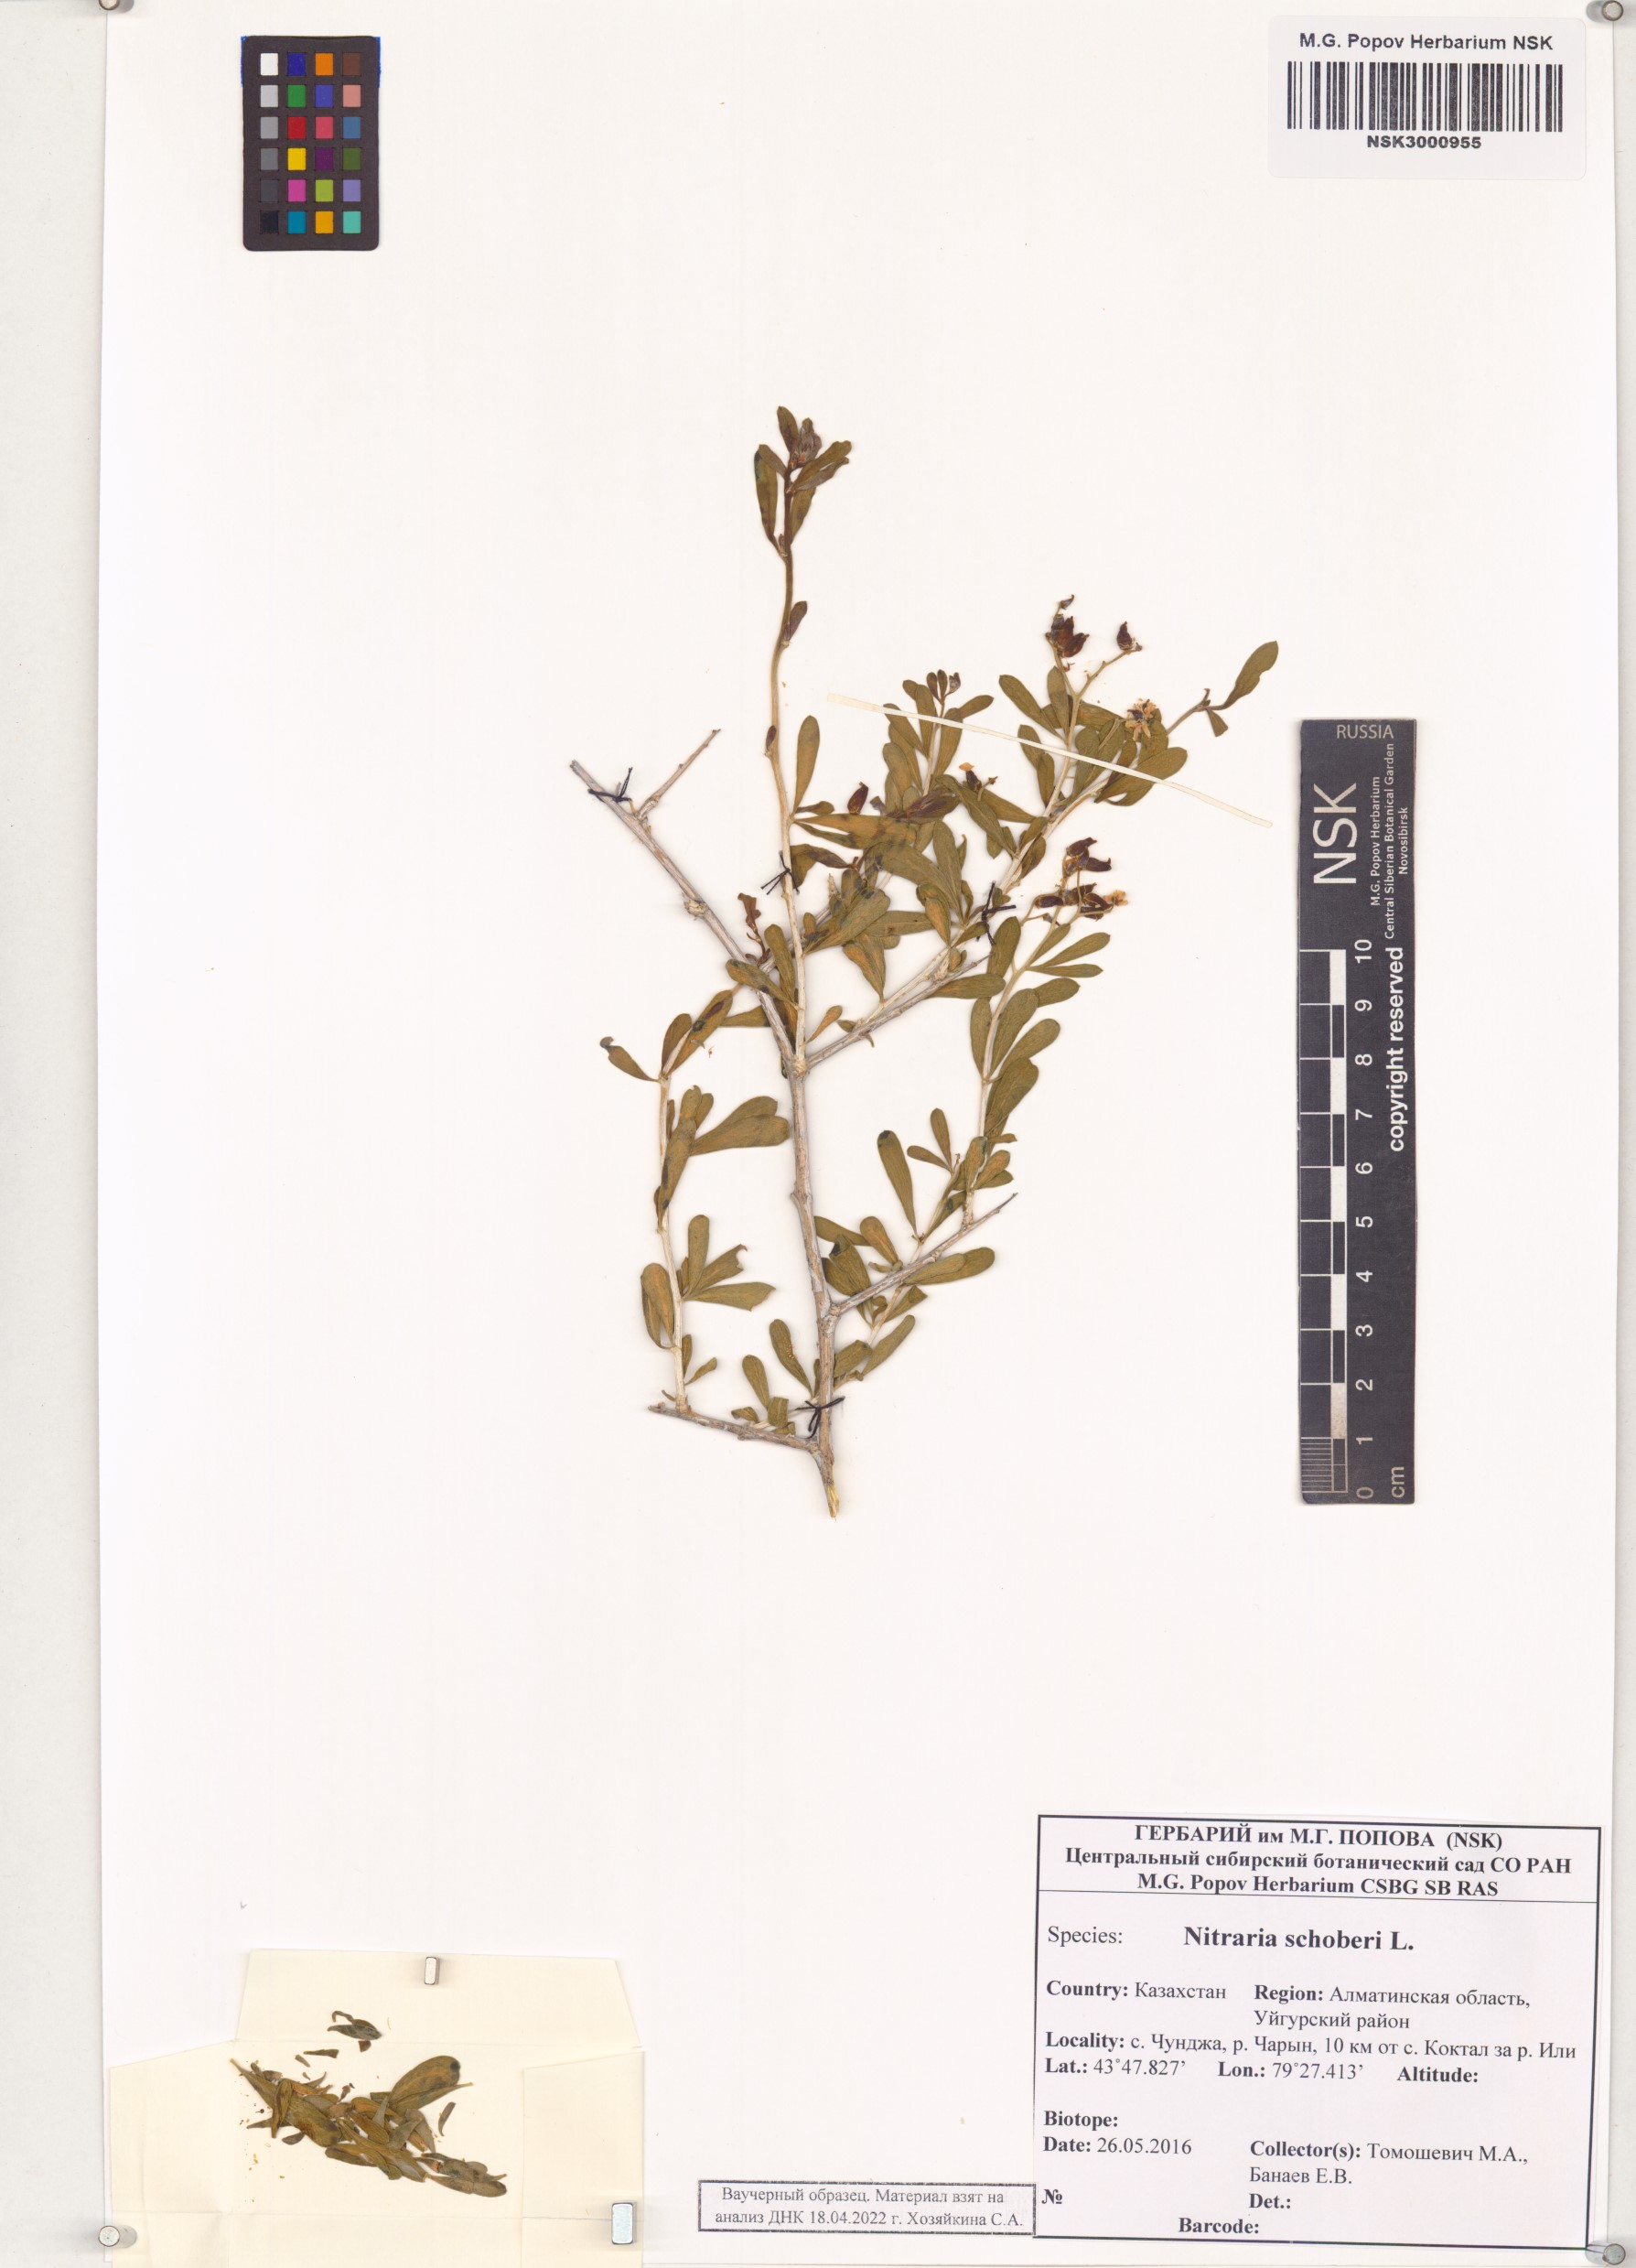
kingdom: Plantae
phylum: Tracheophyta
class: Magnoliopsida
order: Sapindales
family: Nitrariaceae
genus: Nitraria
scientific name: Nitraria schoberi
